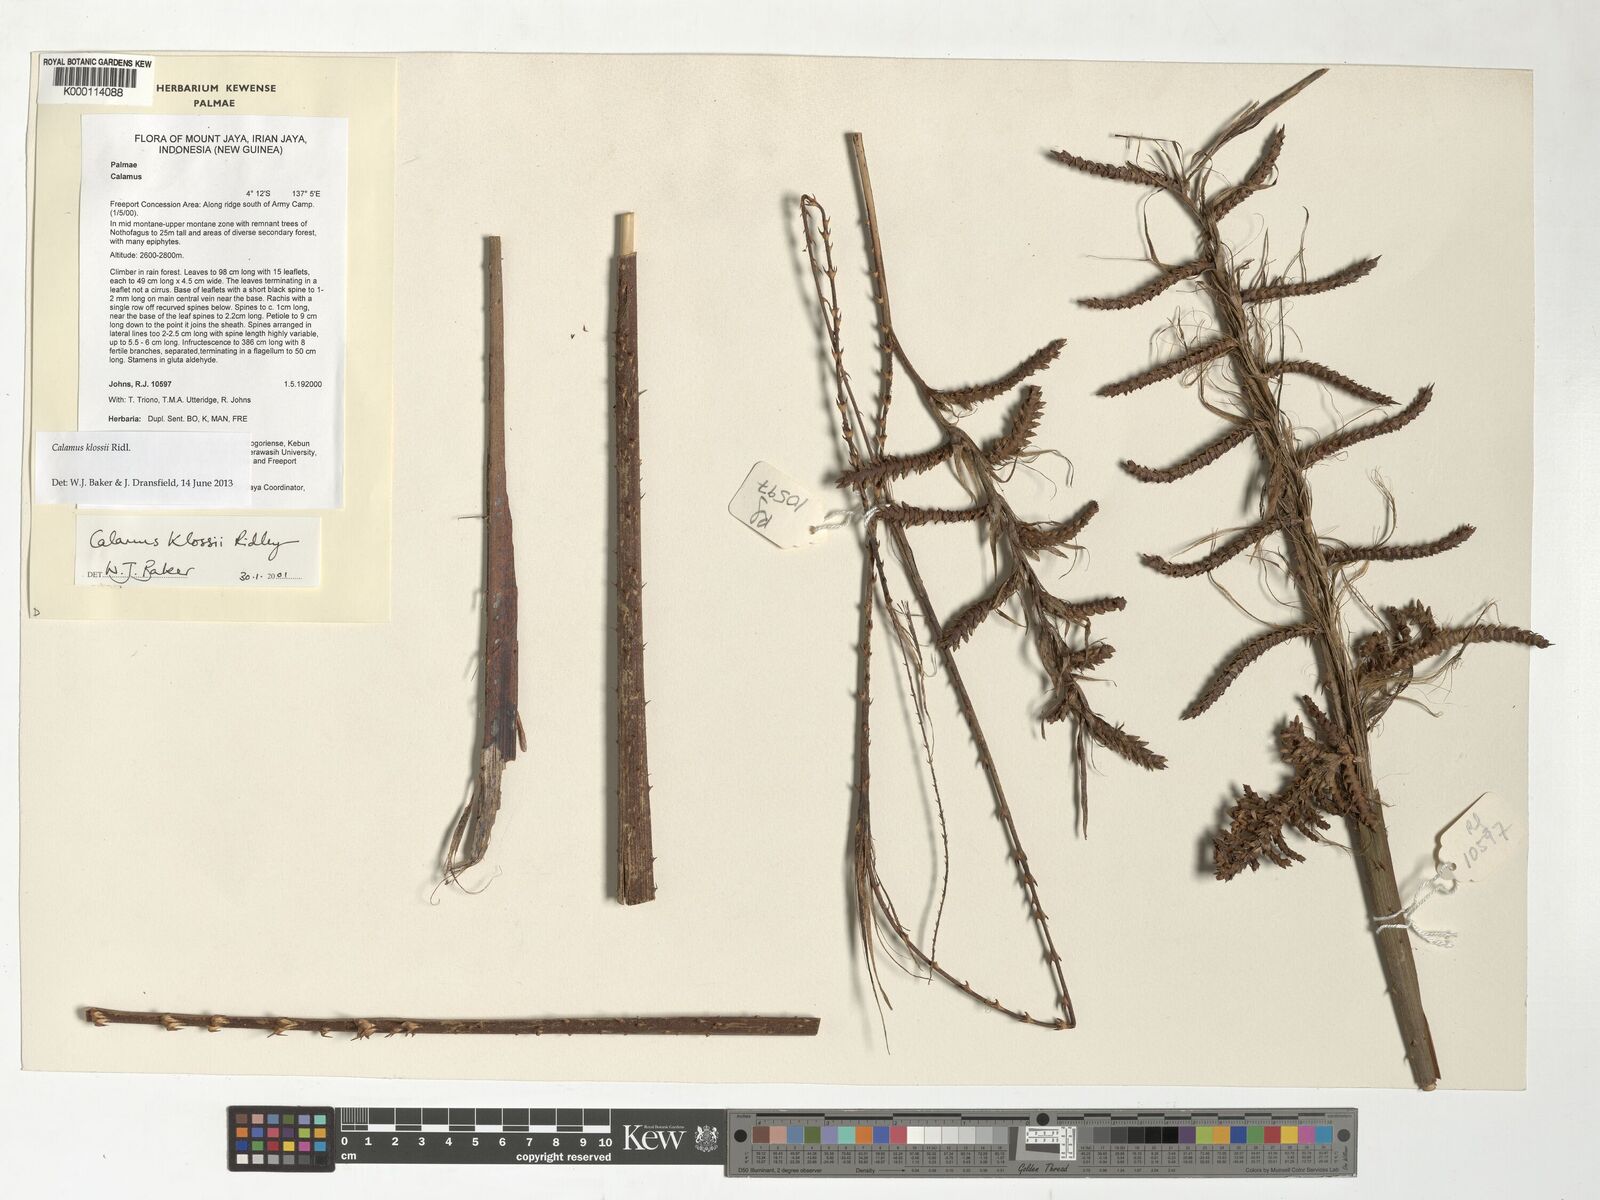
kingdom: Plantae
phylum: Tracheophyta
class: Liliopsida
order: Arecales
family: Arecaceae
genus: Calamus
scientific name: Calamus klossii
